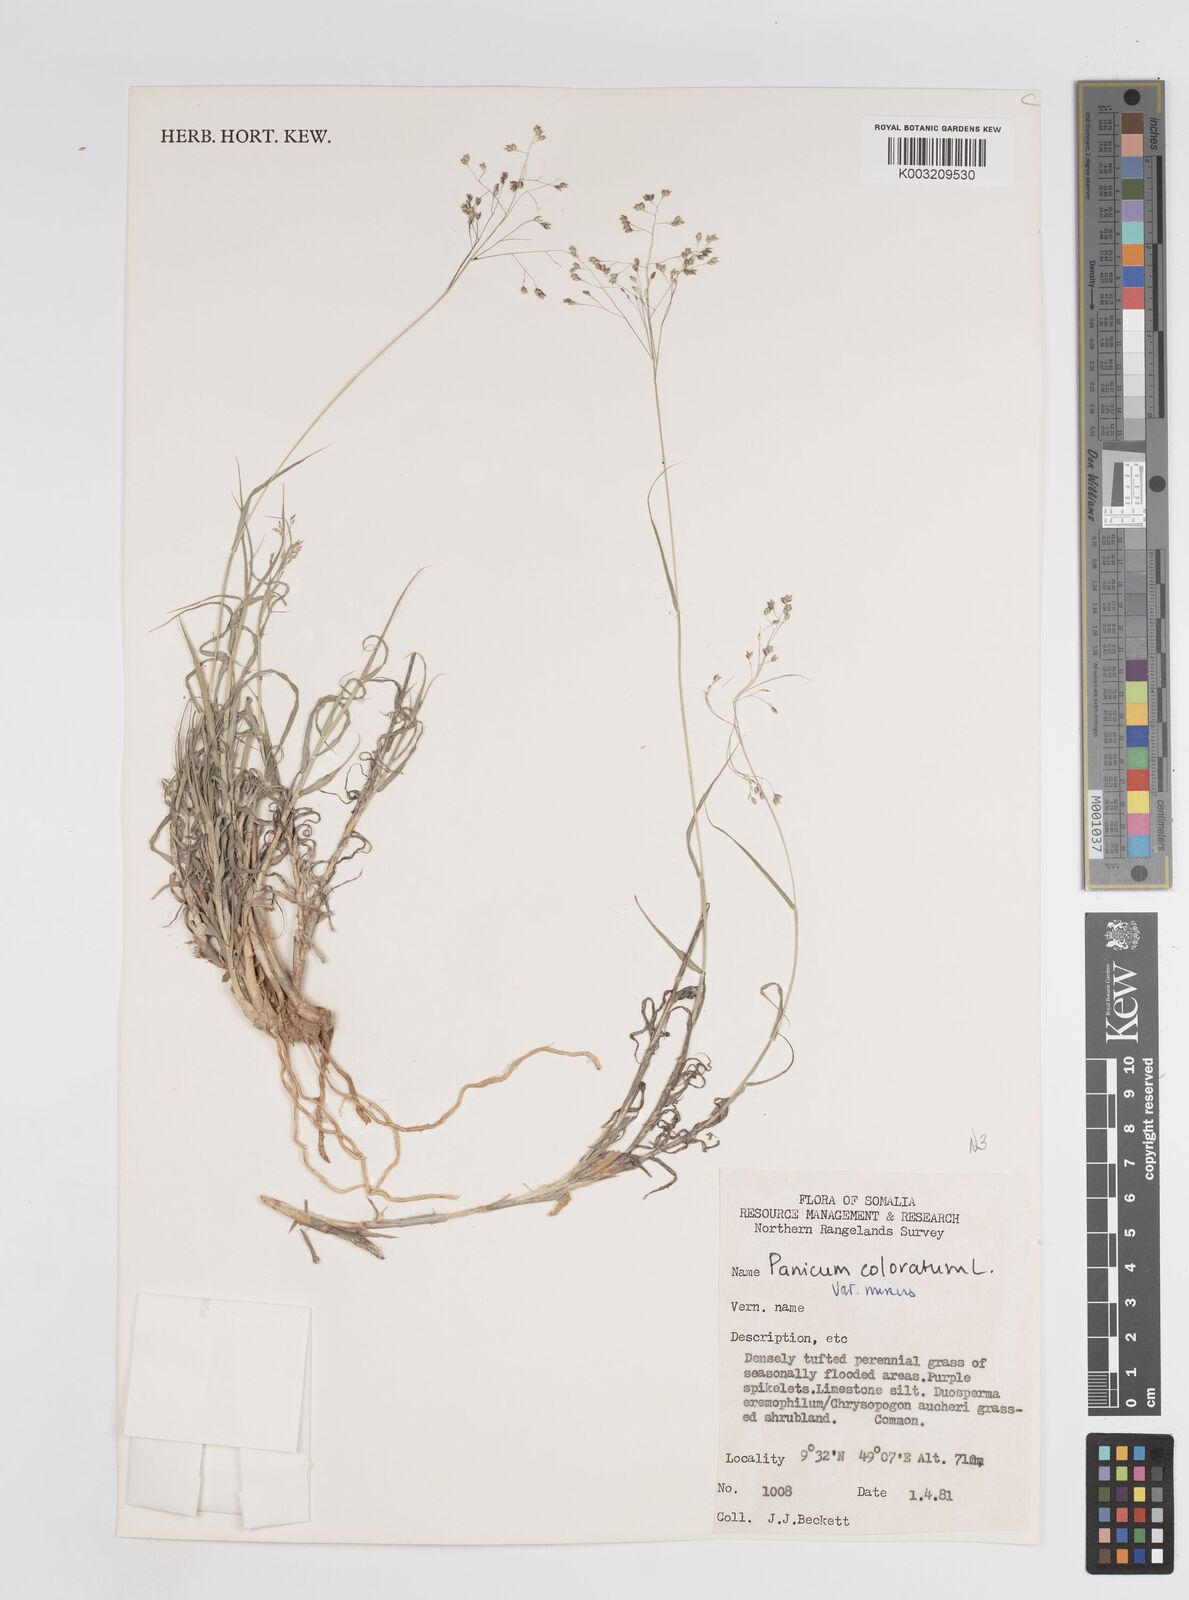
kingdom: Plantae
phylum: Tracheophyta
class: Liliopsida
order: Poales
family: Poaceae
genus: Panicum
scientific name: Panicum coloratum
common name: Kleingrass
